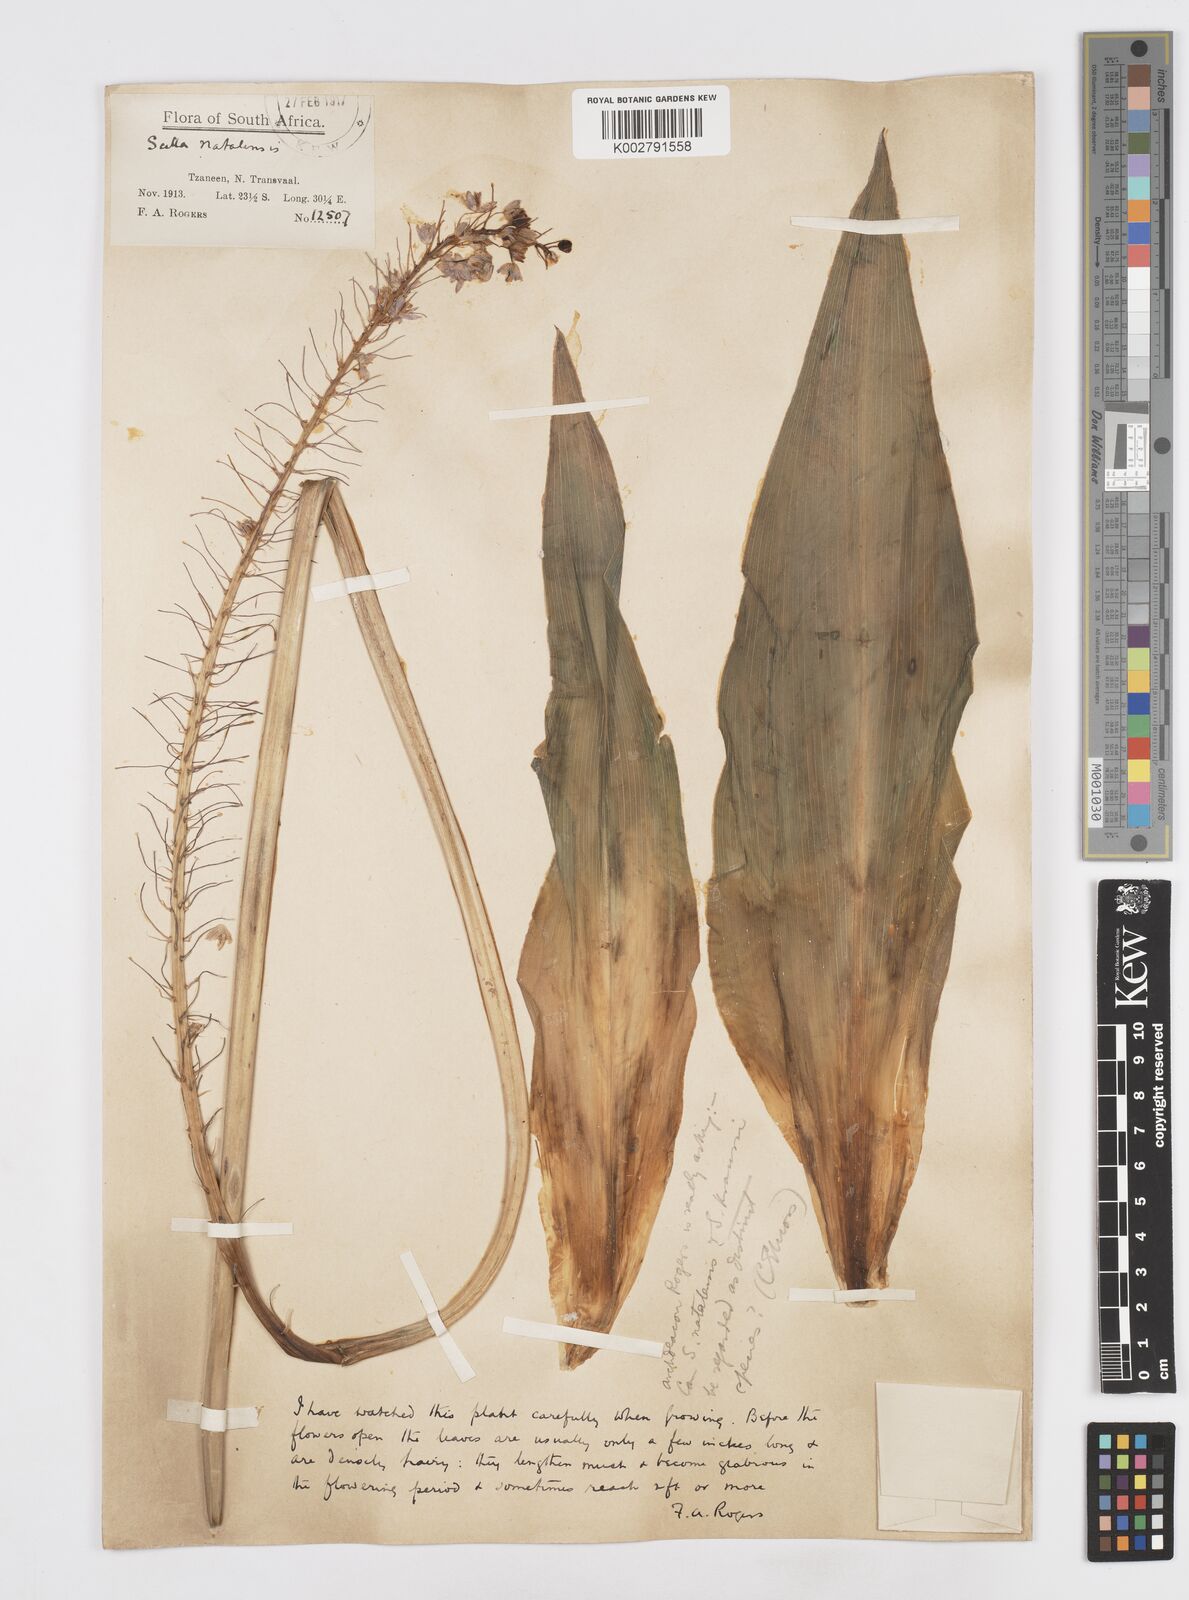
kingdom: Plantae
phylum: Tracheophyta
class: Liliopsida
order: Asparagales
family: Asparagaceae
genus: Merwilla
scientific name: Merwilla plumbea
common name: Blue-squill
